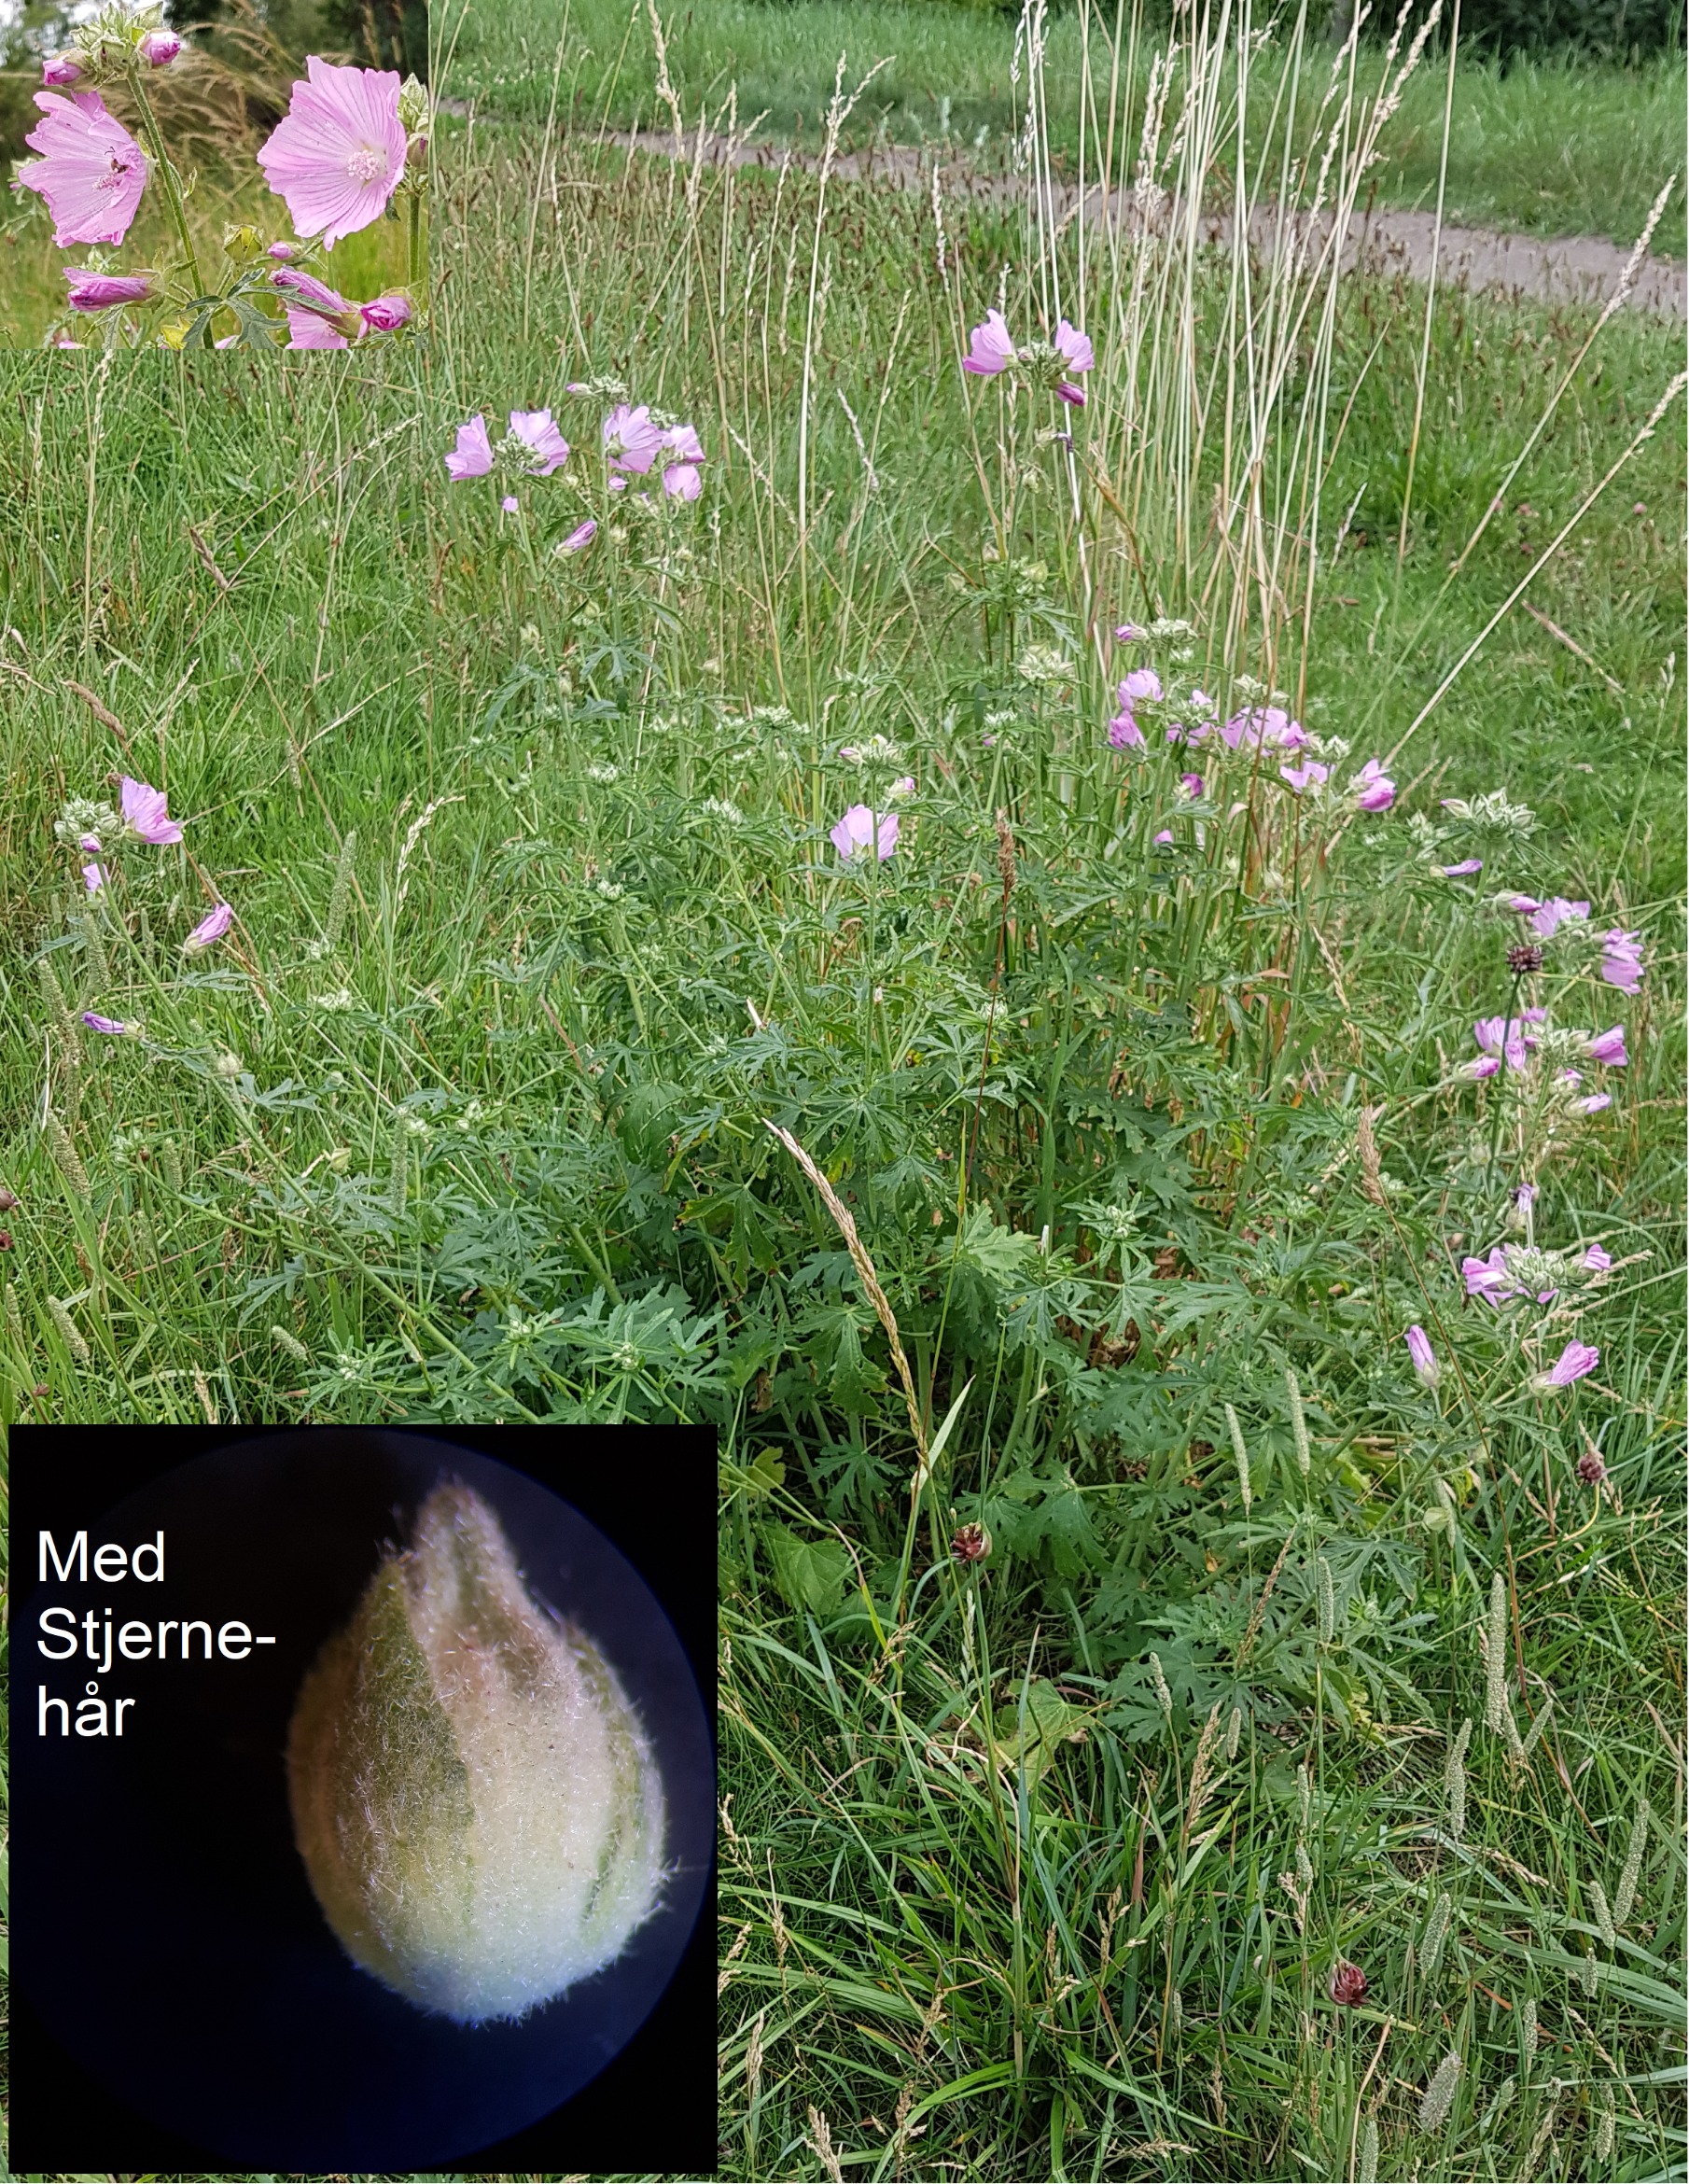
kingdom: Plantae
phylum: Tracheophyta
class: Magnoliopsida
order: Malvales
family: Malvaceae
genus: Malva
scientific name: Malva alcea
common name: Rosen-katost
